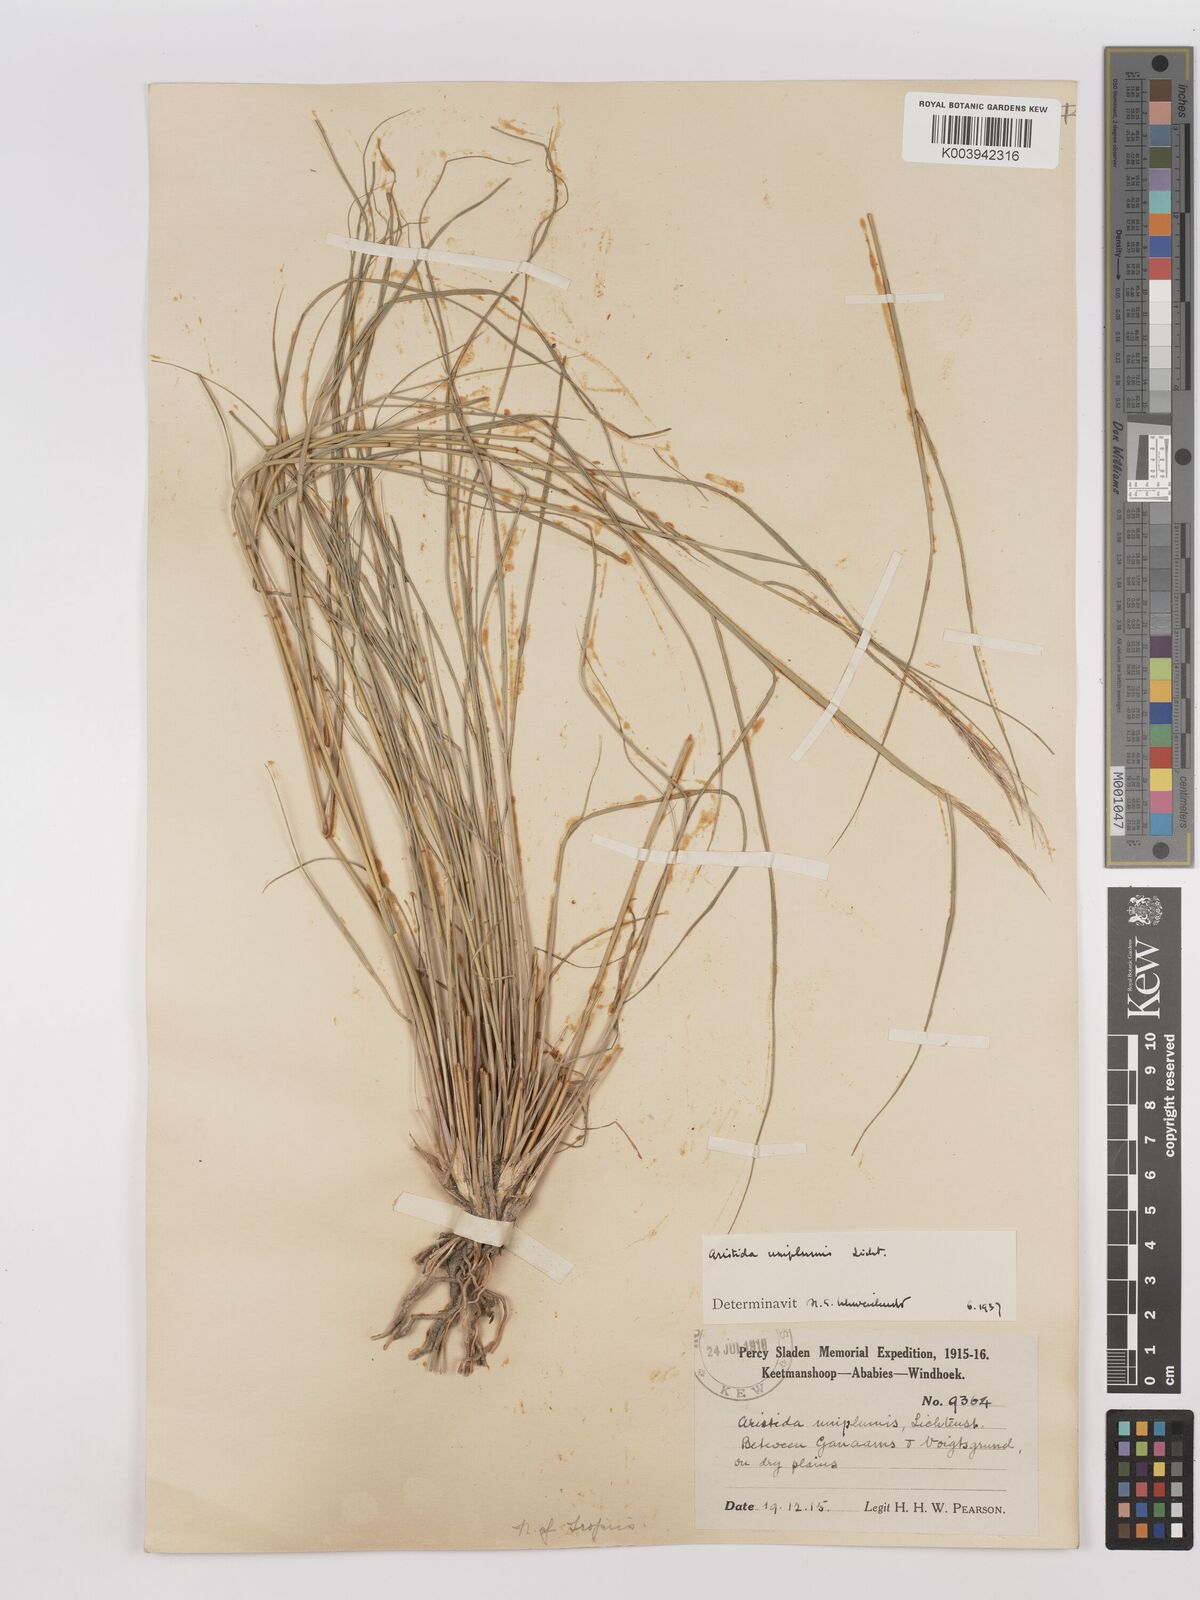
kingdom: Plantae
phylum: Tracheophyta
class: Liliopsida
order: Poales
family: Poaceae
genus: Stipagrostis
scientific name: Stipagrostis uniplumis
